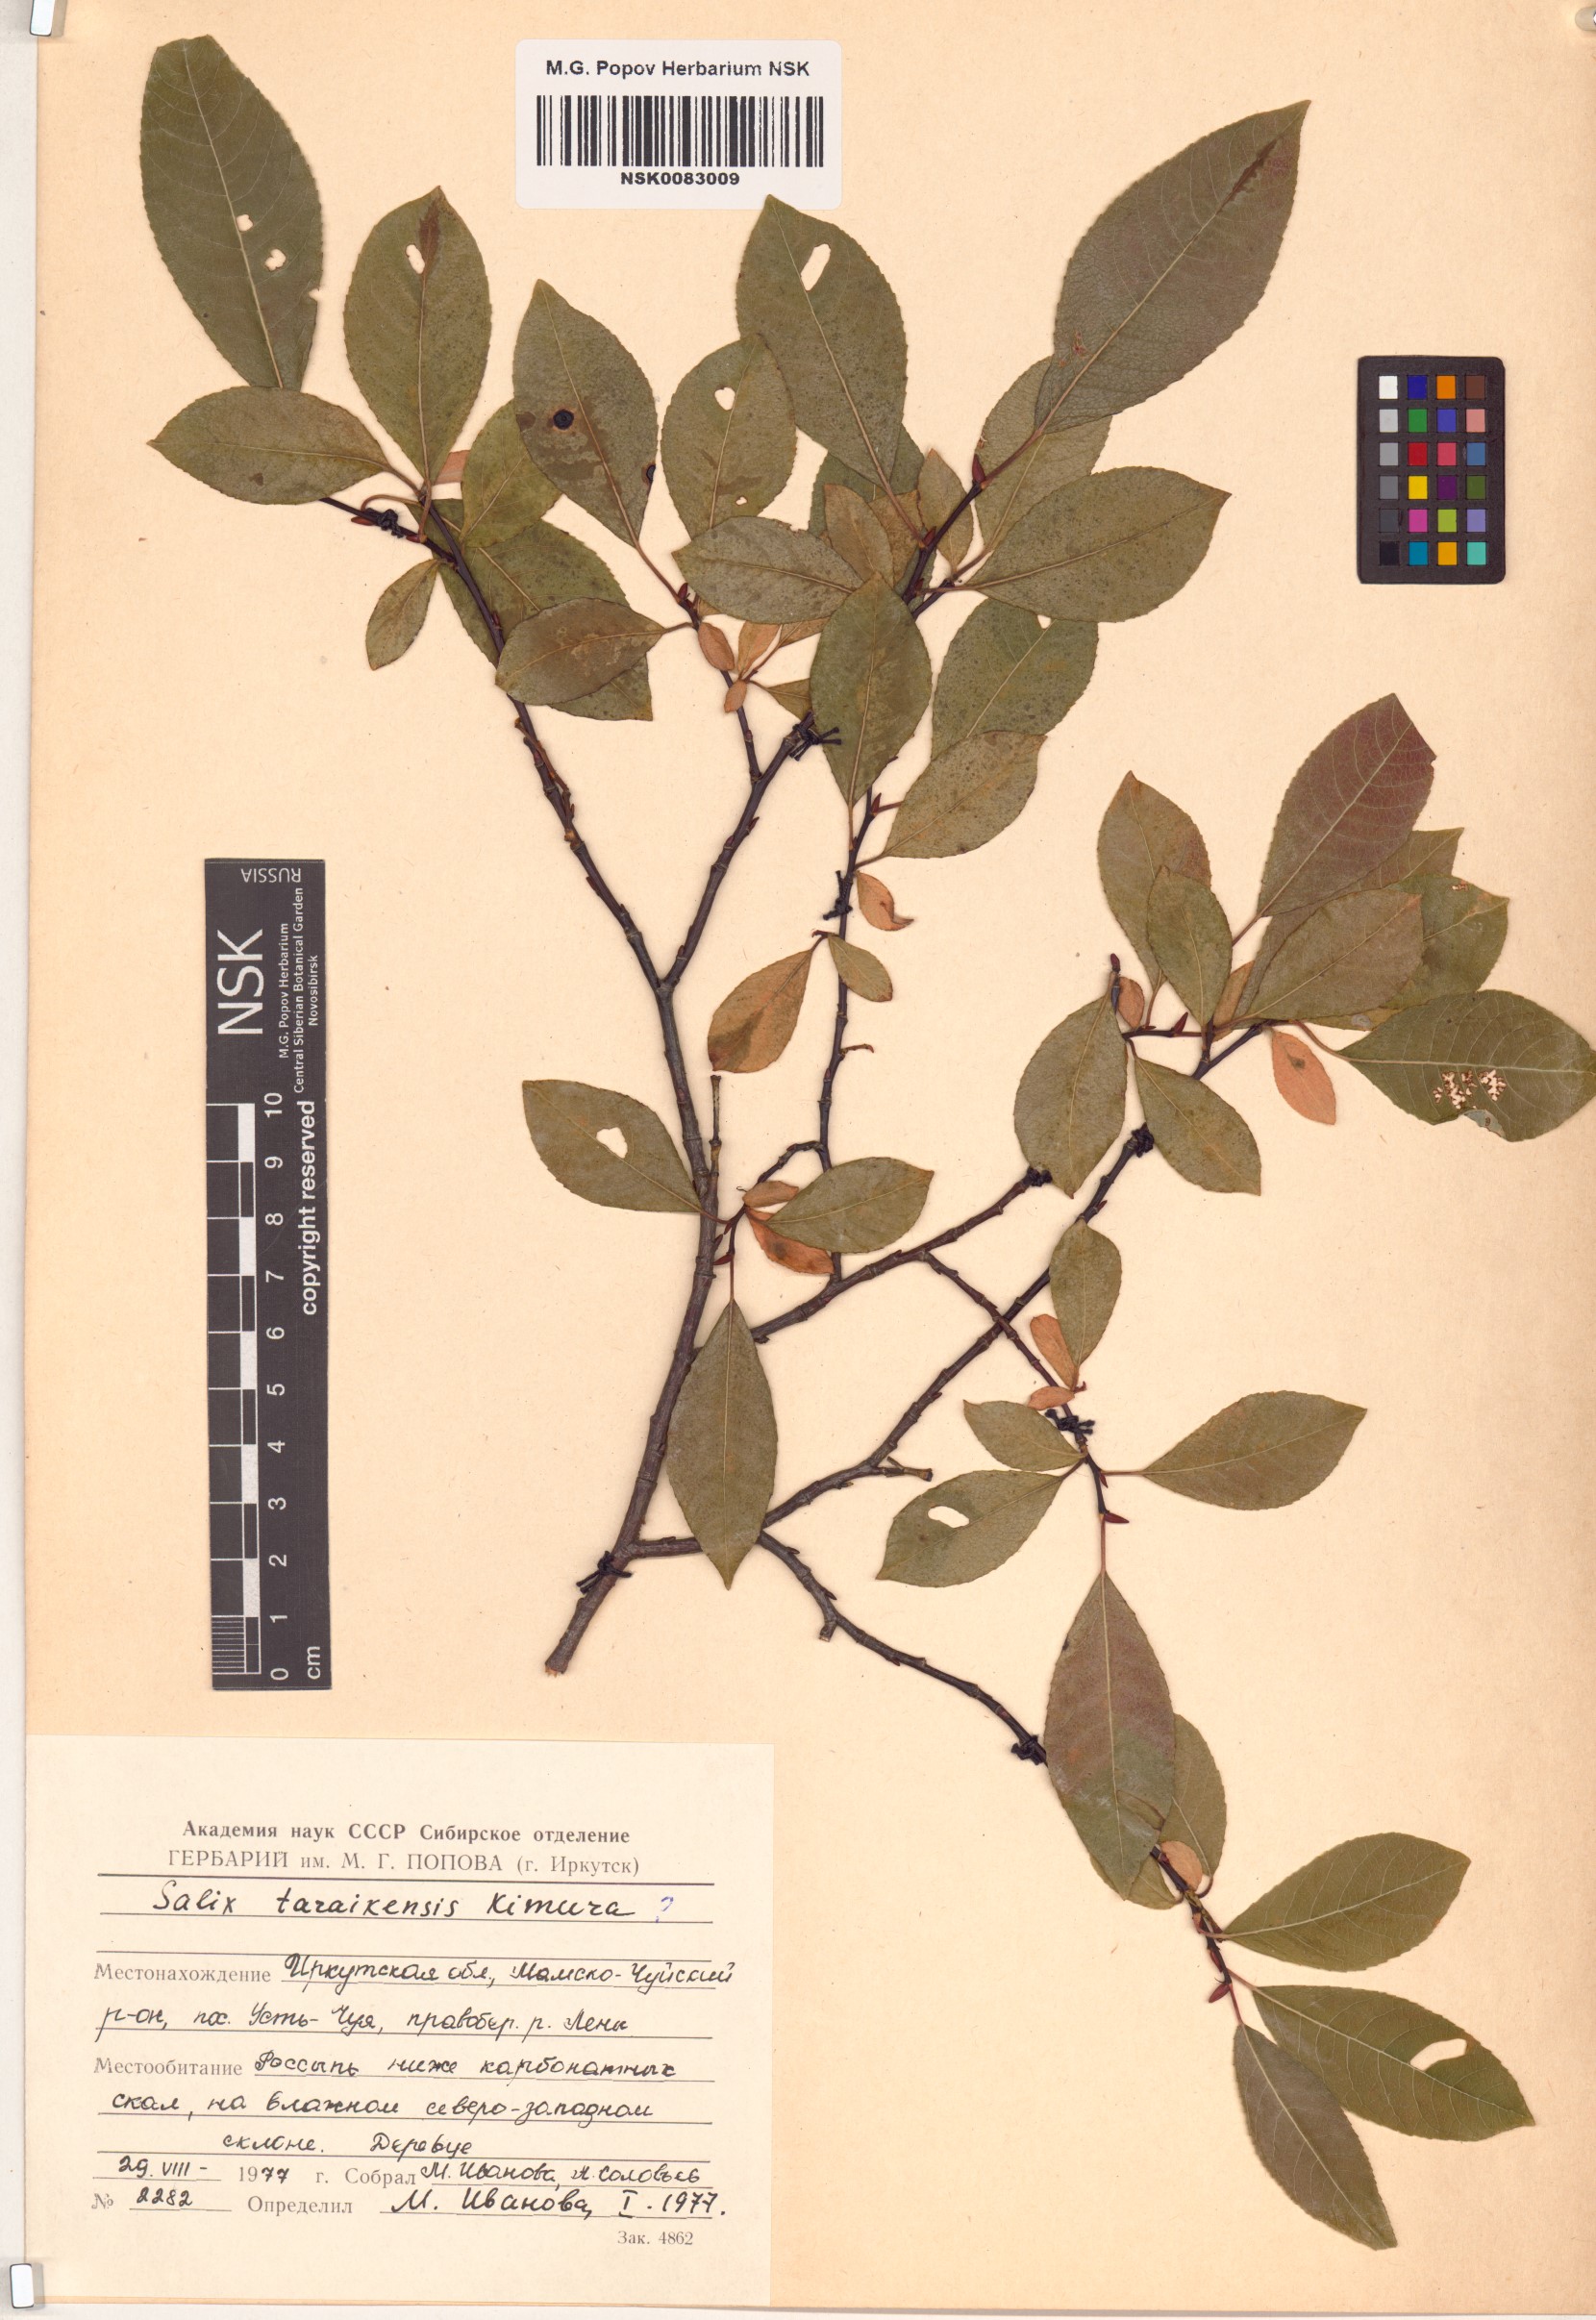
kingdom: Plantae
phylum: Tracheophyta
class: Magnoliopsida
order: Malpighiales
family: Salicaceae
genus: Salix
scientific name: Salix taraikensis
